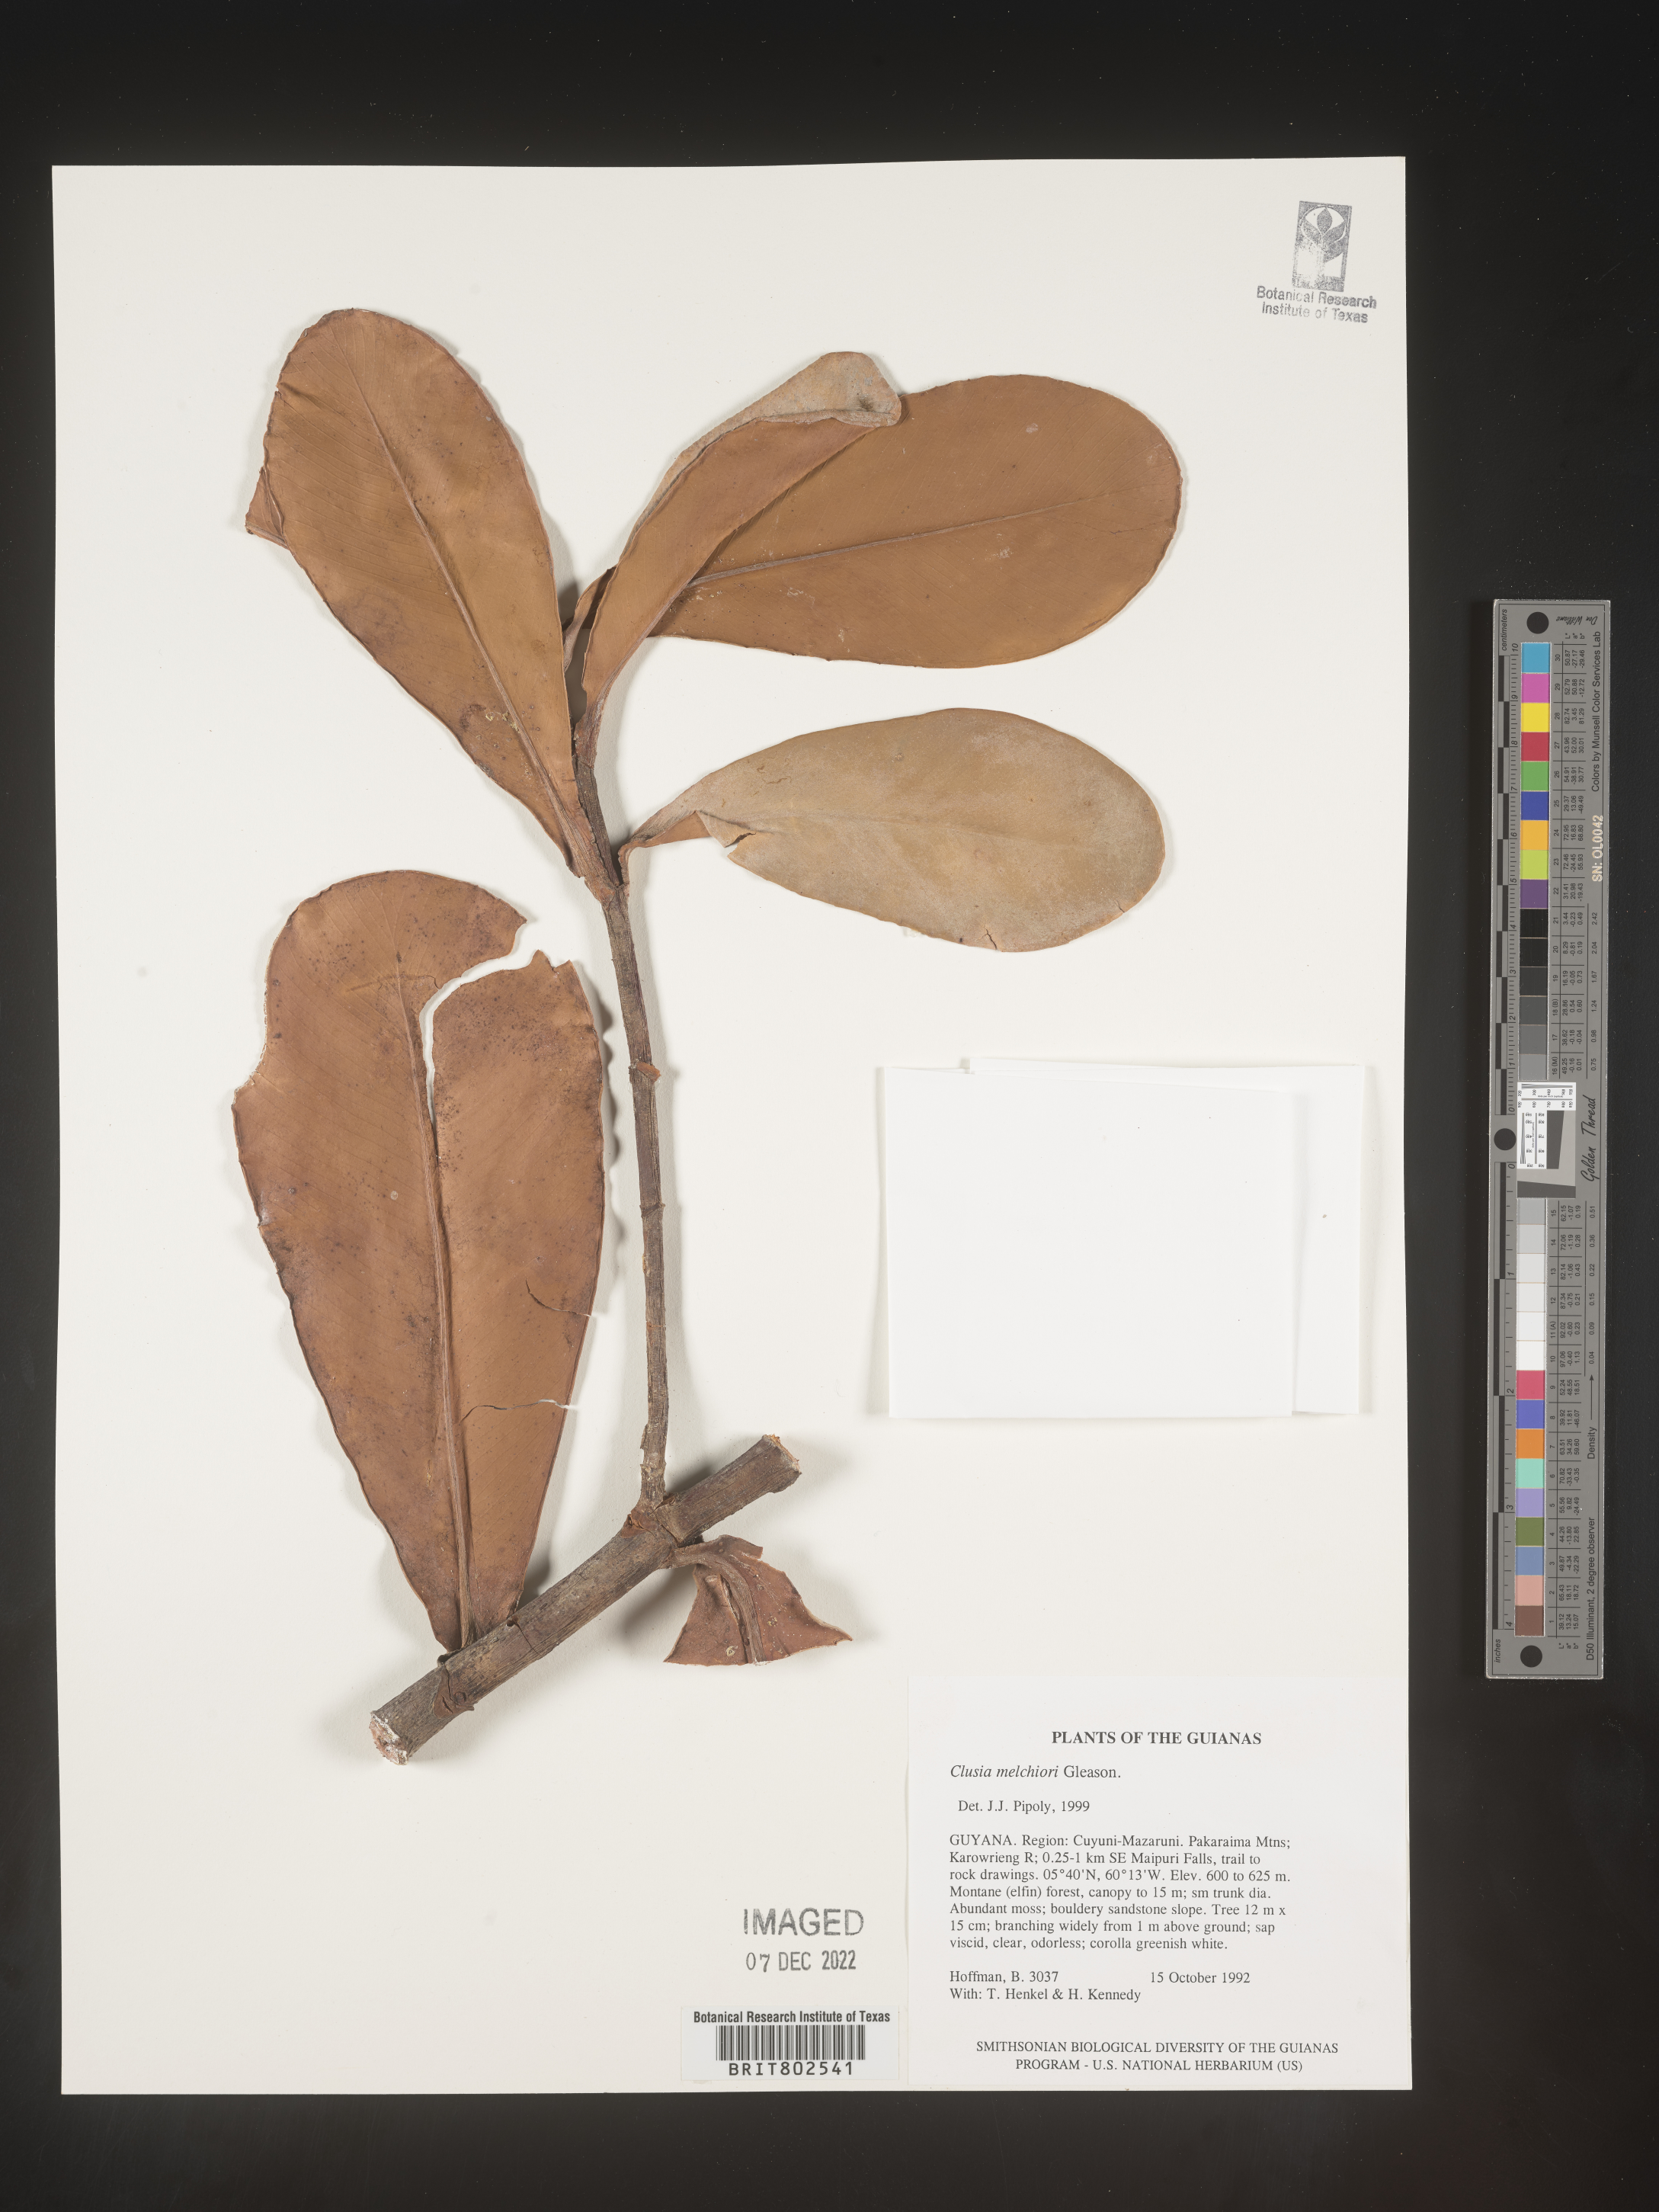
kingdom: Plantae
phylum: Tracheophyta
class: Magnoliopsida
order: Malpighiales
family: Clusiaceae
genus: Clusia
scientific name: Clusia melchiorii
